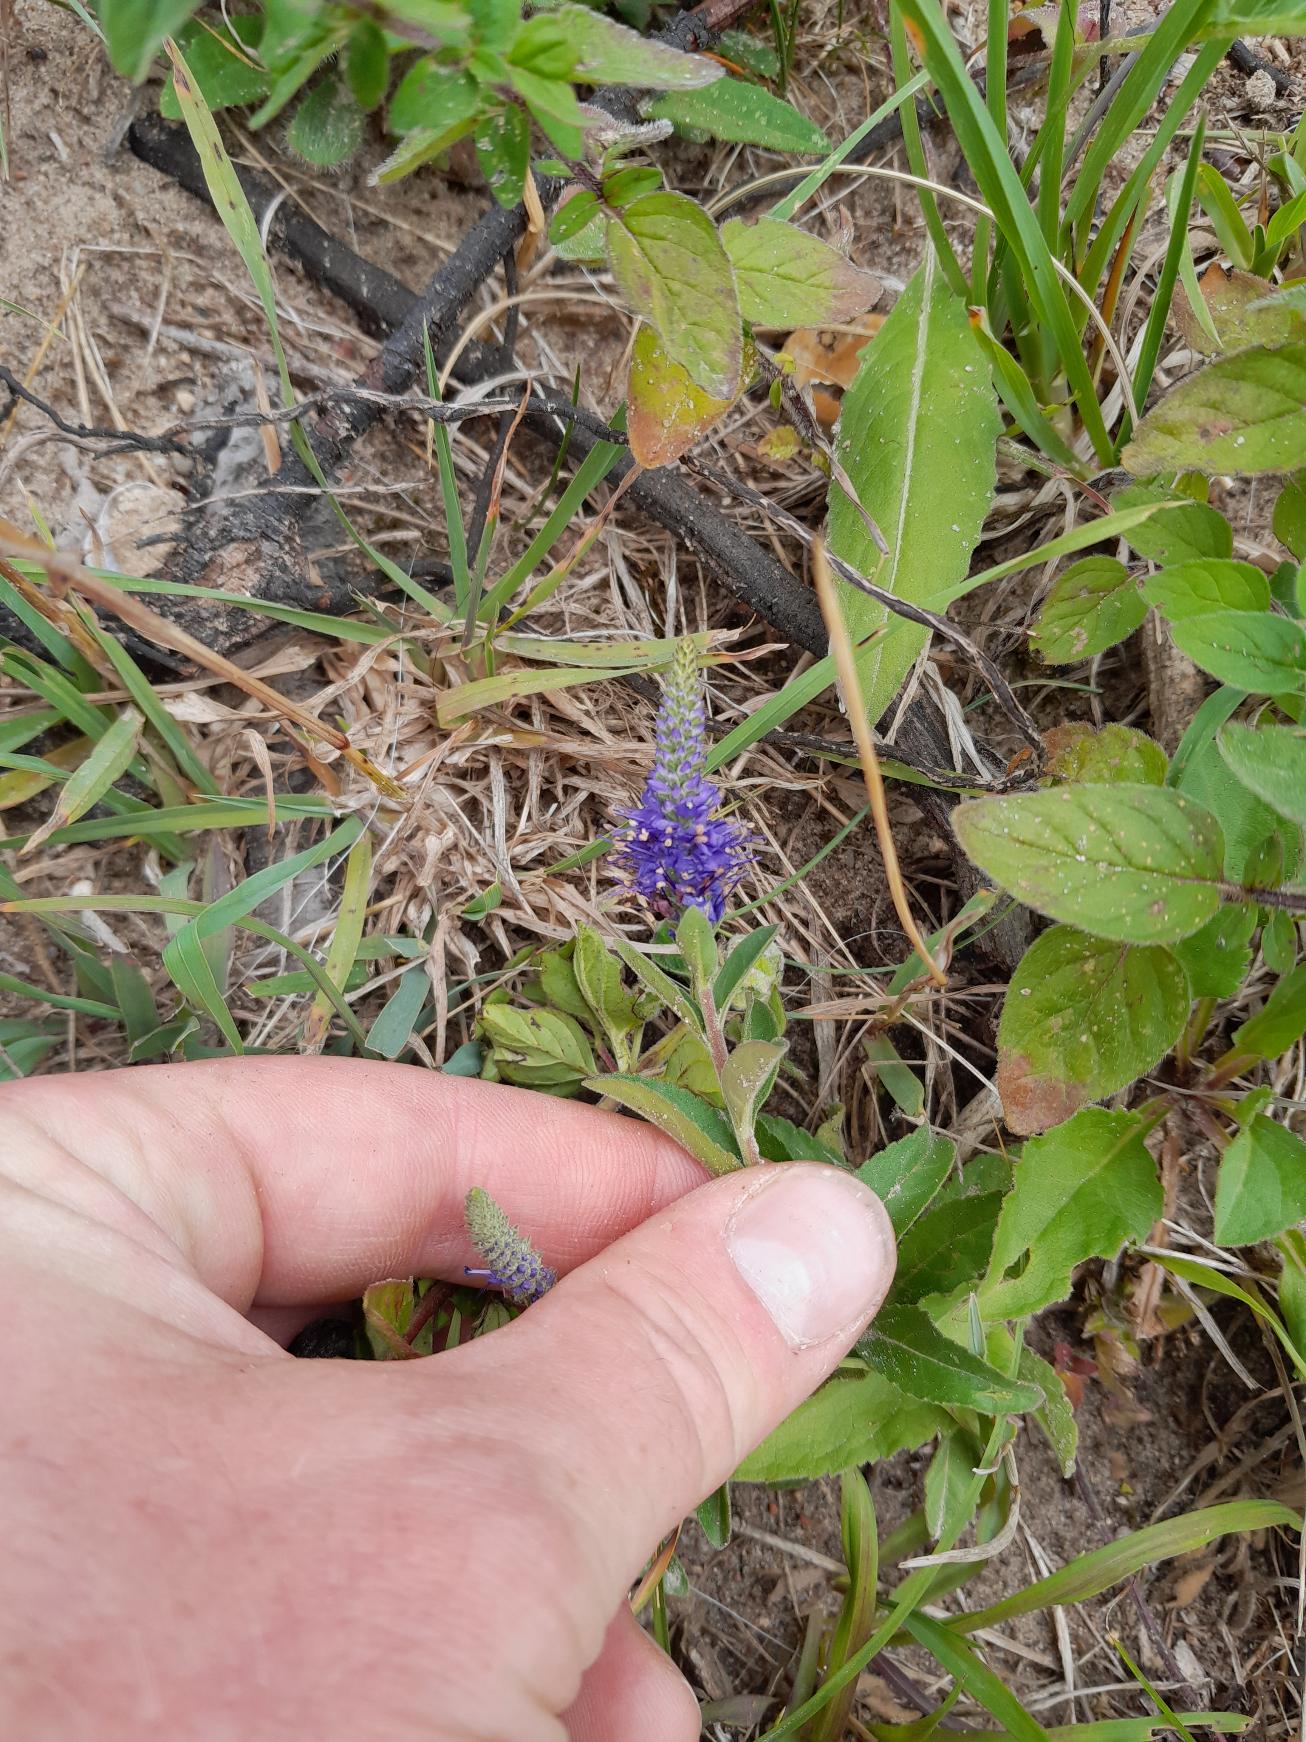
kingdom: Plantae
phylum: Tracheophyta
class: Magnoliopsida
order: Lamiales
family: Plantaginaceae
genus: Veronica
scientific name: Veronica spicata
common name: Aks-ærenpris
